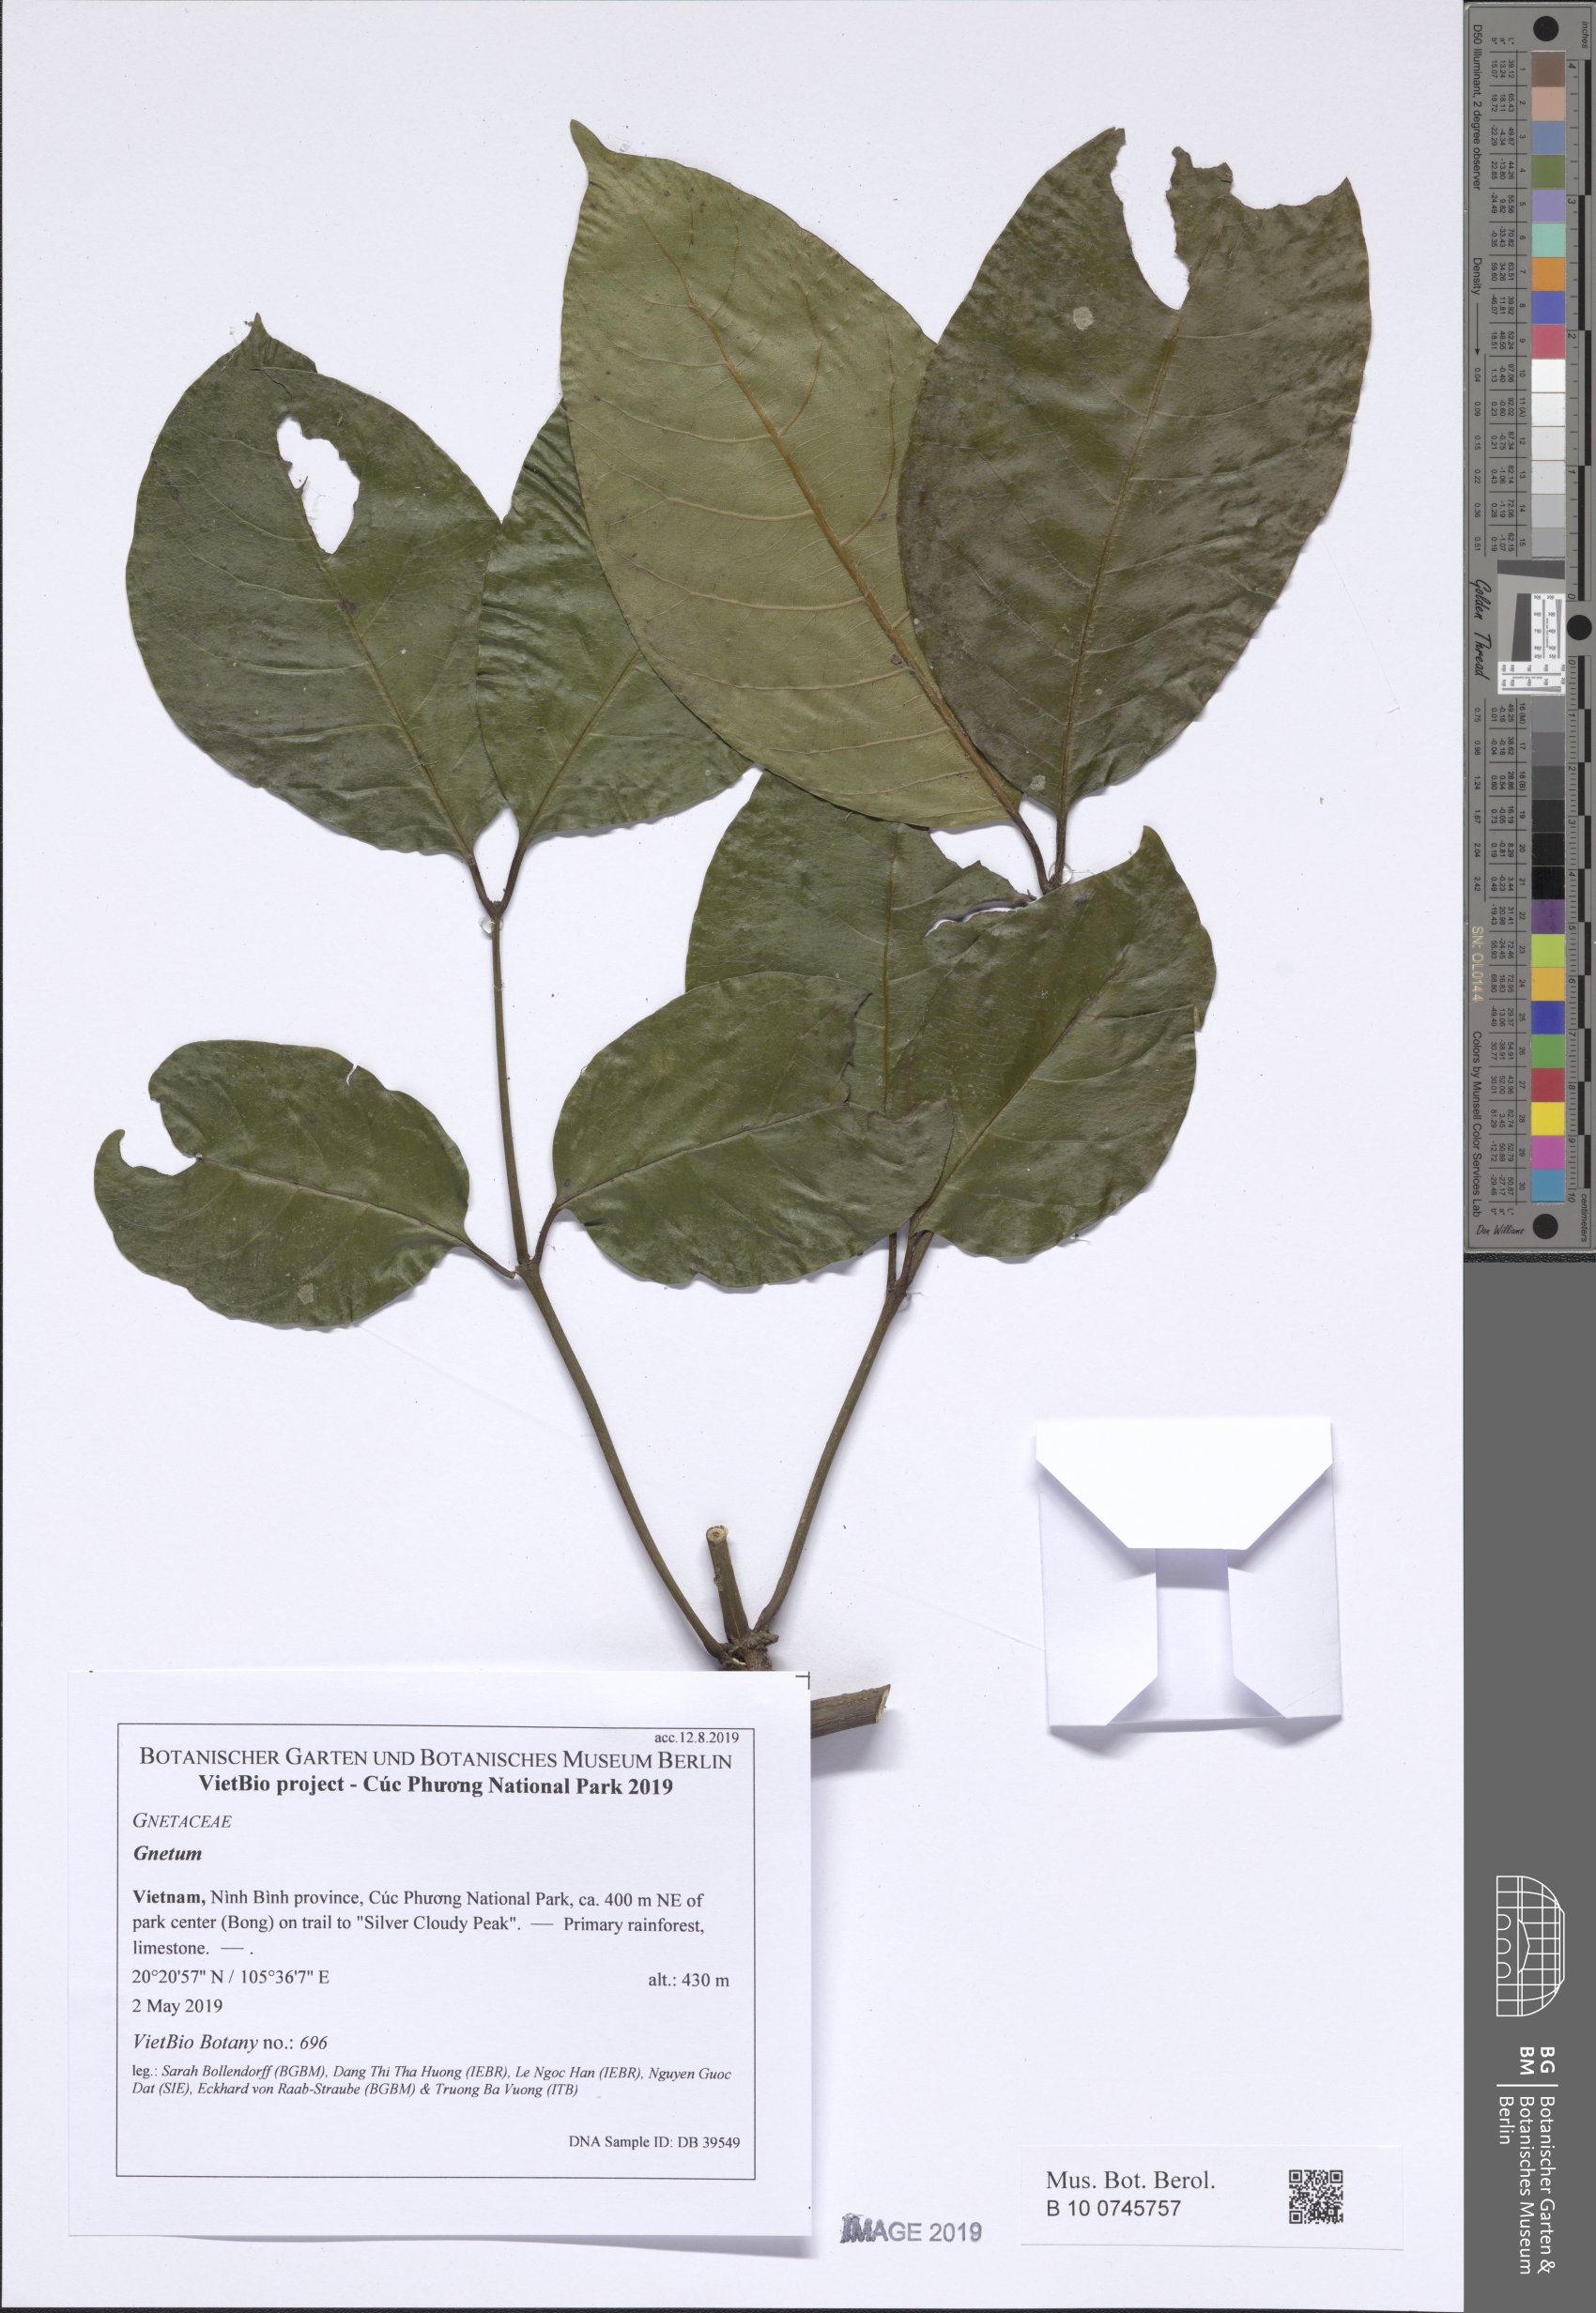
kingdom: Plantae
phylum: Tracheophyta
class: Gnetopsida
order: Gnetales
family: Gnetaceae
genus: Gnetum
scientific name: Gnetum gnemonoides
